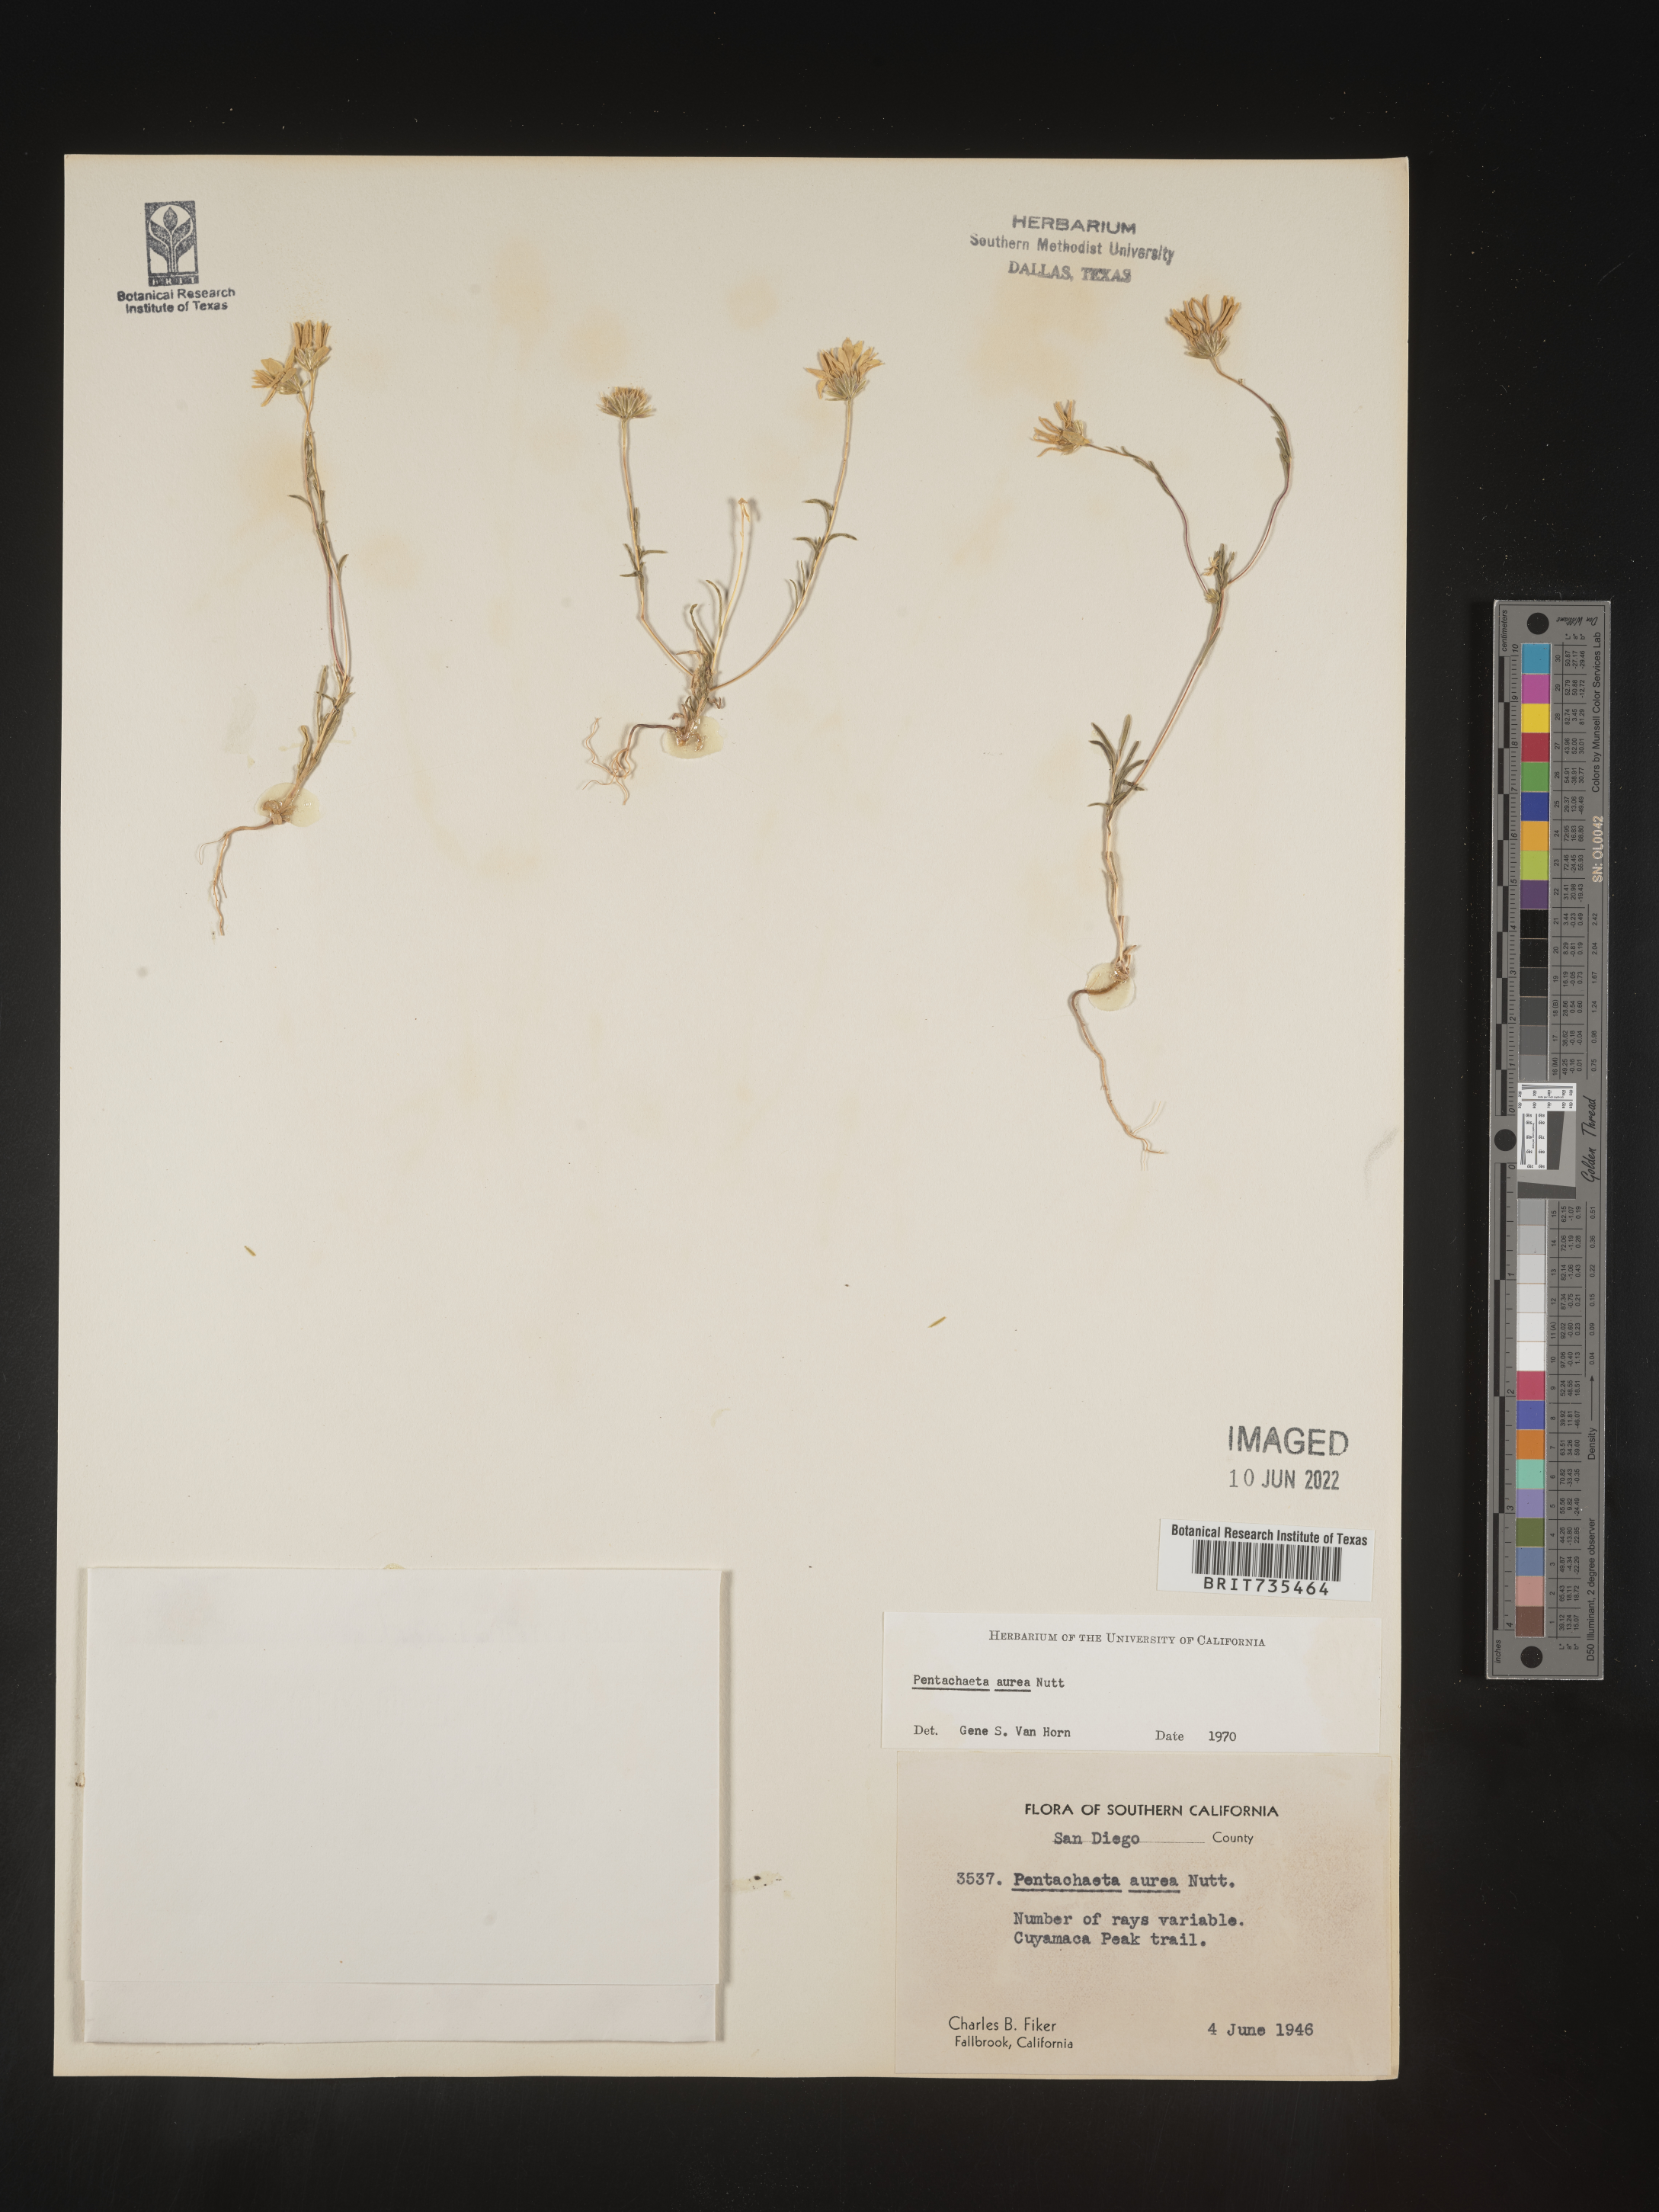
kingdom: Plantae
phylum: Tracheophyta
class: Magnoliopsida
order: Asterales
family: Asteraceae
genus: Pentachaeta
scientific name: Pentachaeta aurea
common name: Golden-ray pentachaeta
